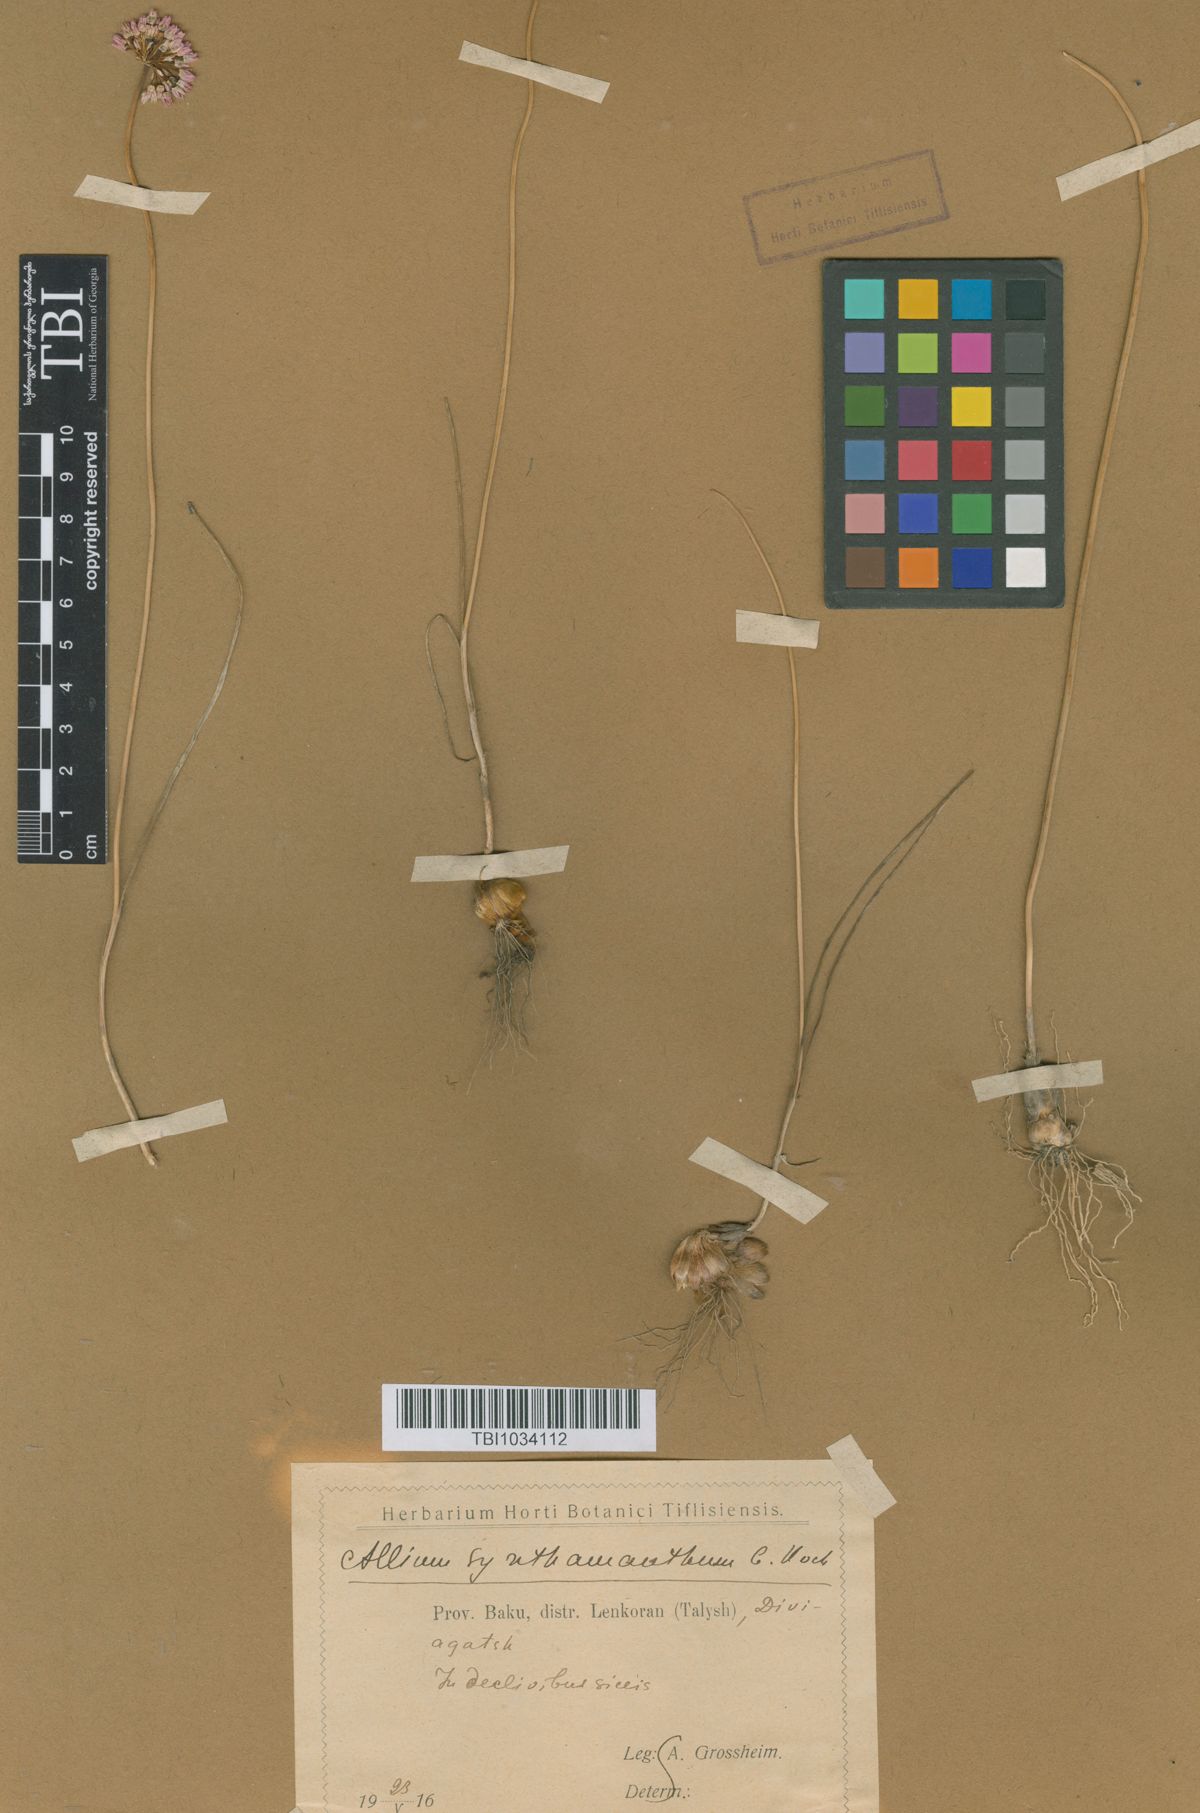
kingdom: Plantae
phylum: Tracheophyta
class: Liliopsida
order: Asparagales
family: Amaryllidaceae
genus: Allium
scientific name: Allium rubellum
